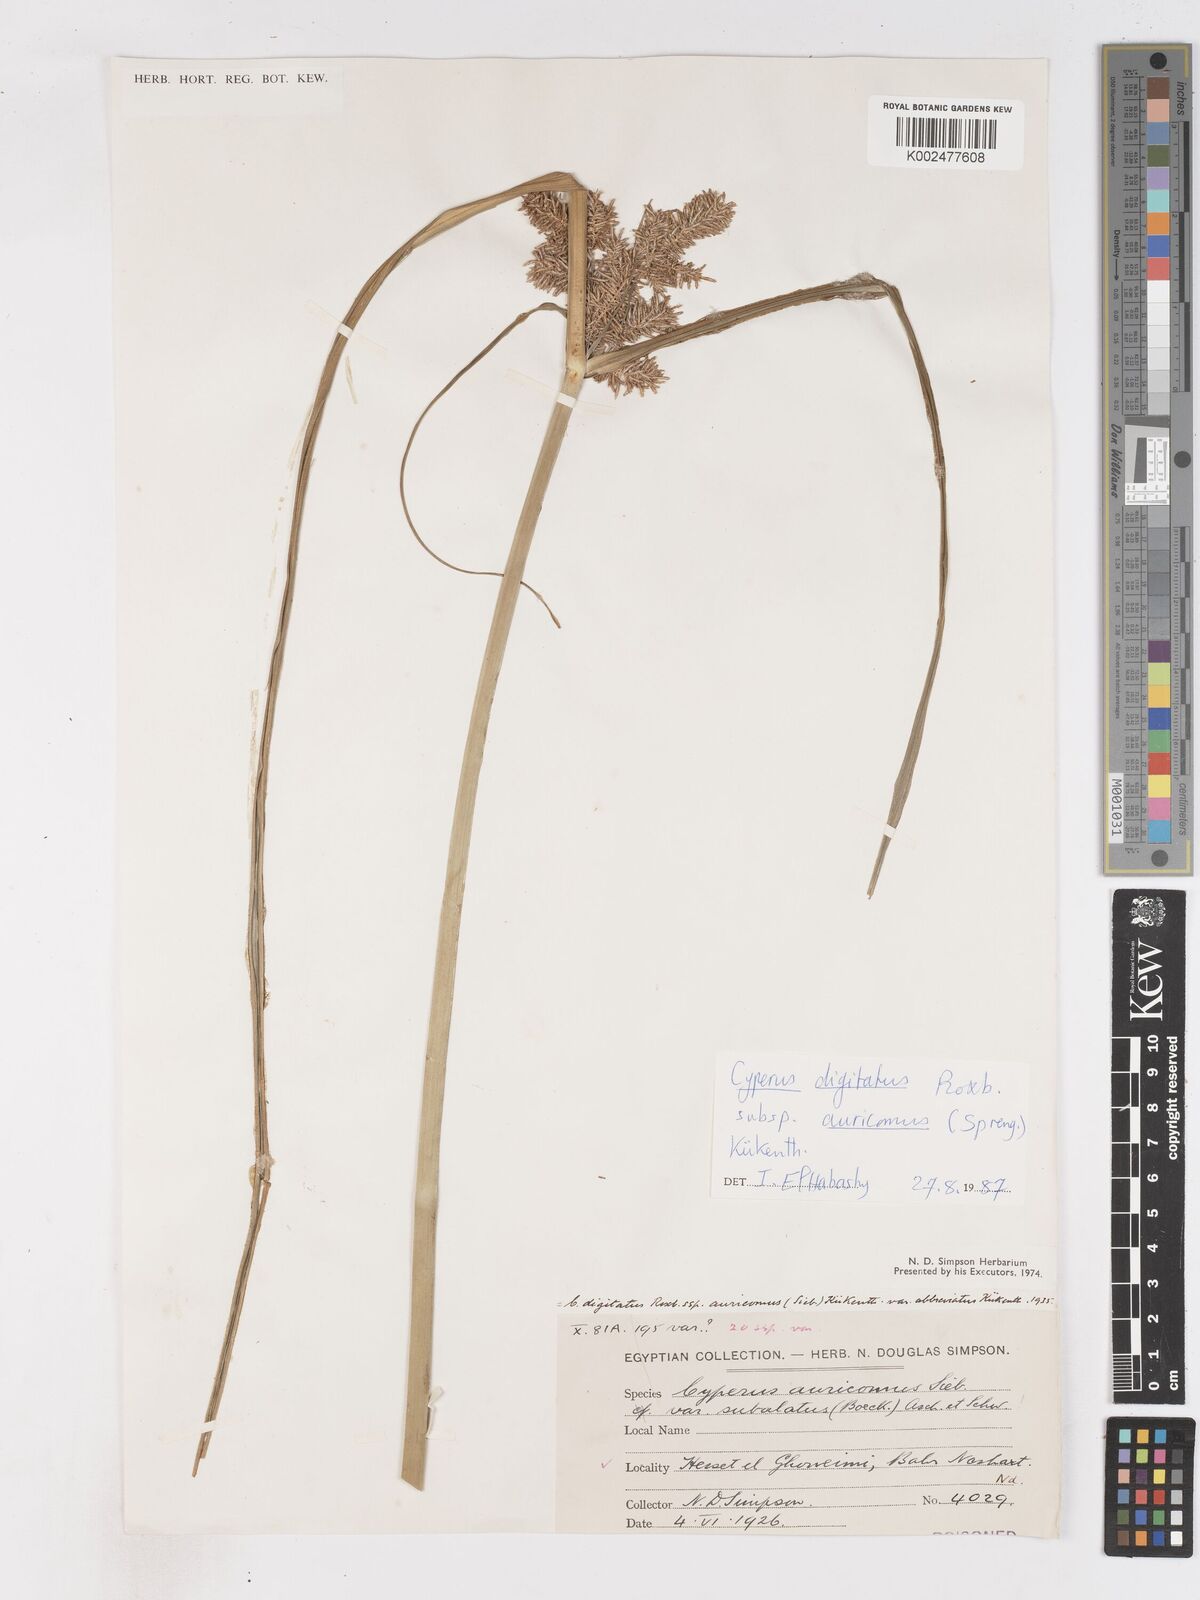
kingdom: Plantae
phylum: Tracheophyta
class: Liliopsida
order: Poales
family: Cyperaceae
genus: Cyperus
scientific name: Cyperus digitatus
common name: Finger flatsedge
